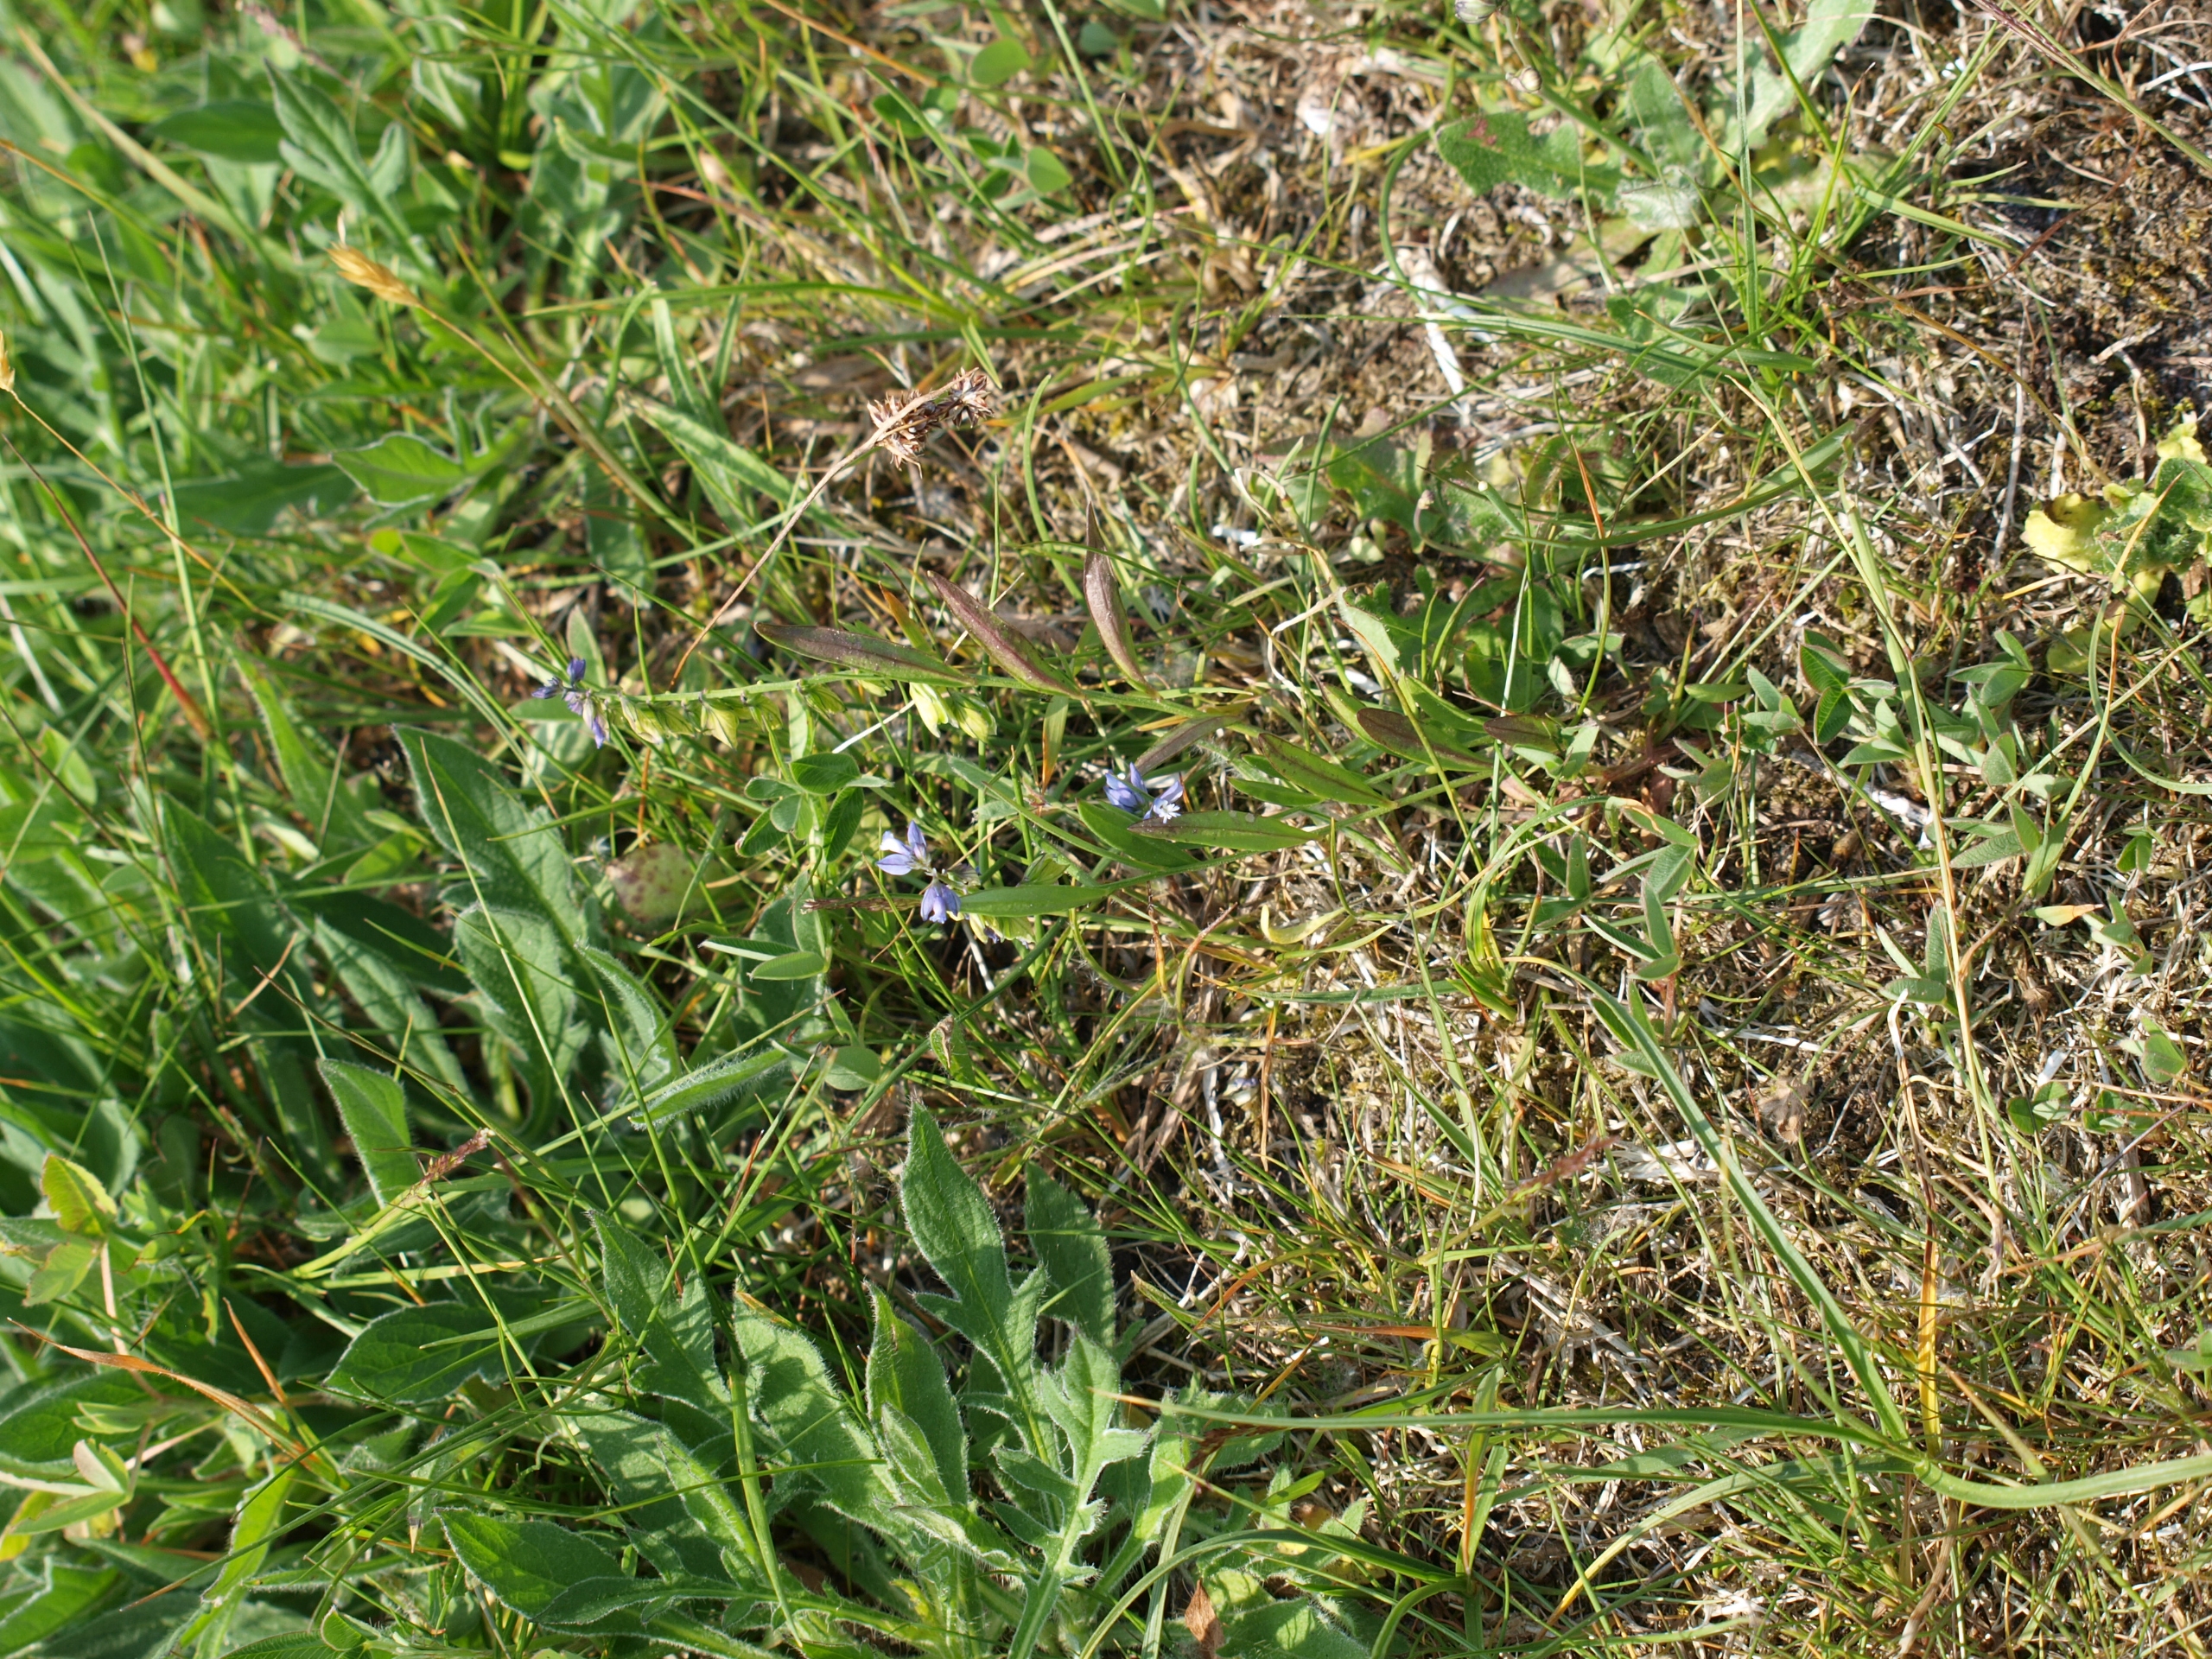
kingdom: Plantae
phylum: Tracheophyta
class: Magnoliopsida
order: Fabales
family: Polygalaceae
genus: Polygala
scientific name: Polygala vulgaris
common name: Almindelig mælkeurt
